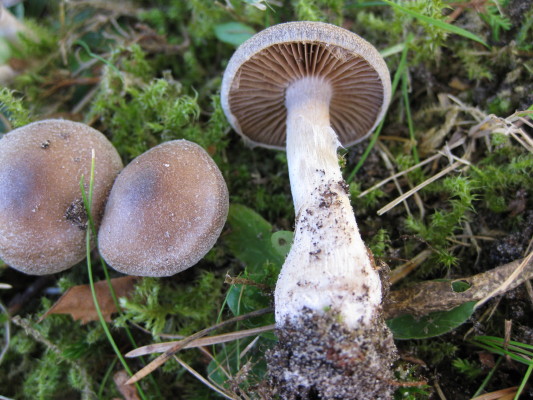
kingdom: Fungi
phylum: Basidiomycota
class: Agaricomycetes
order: Agaricales
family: Cortinariaceae
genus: Cortinarius
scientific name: Cortinarius
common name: pelargonie-slørhat
